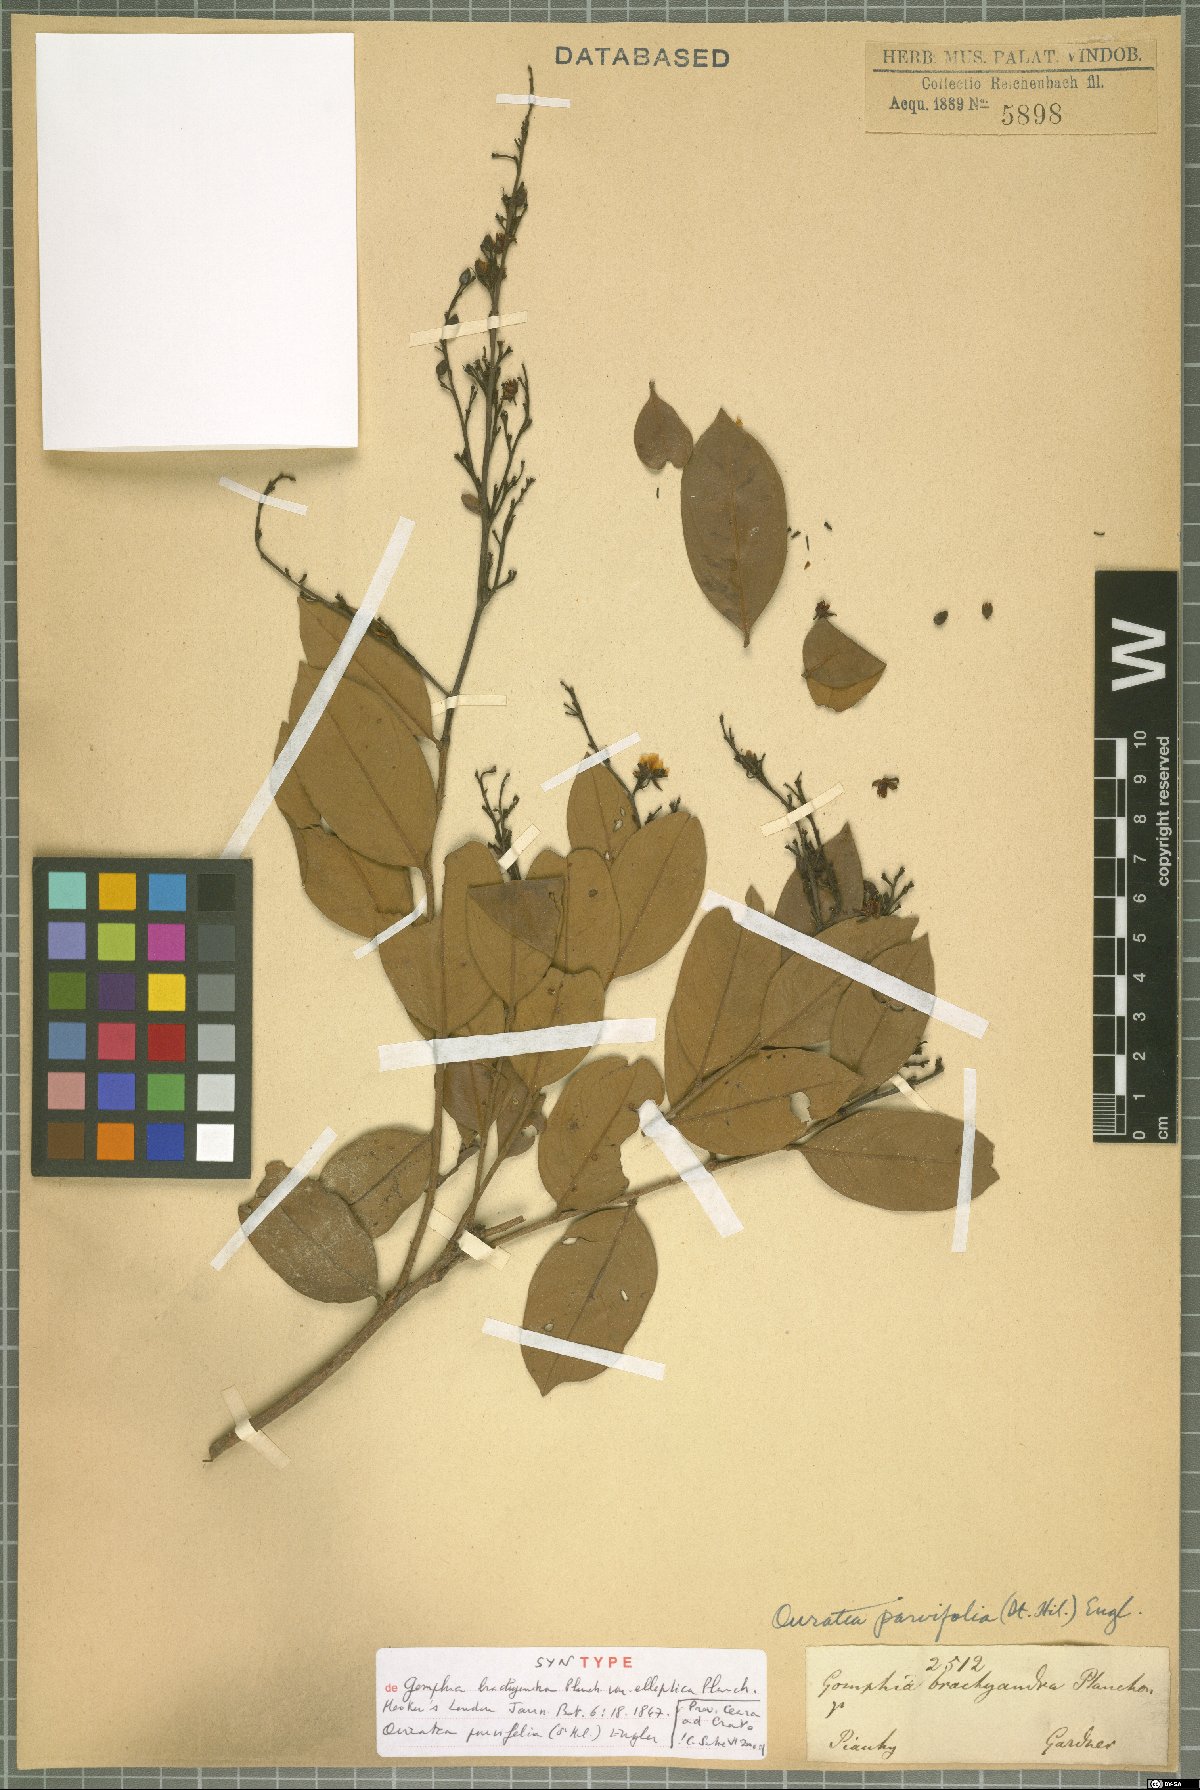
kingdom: Plantae
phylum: Tracheophyta
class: Magnoliopsida
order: Malpighiales
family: Ochnaceae
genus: Ouratea
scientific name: Ouratea parvifolia
